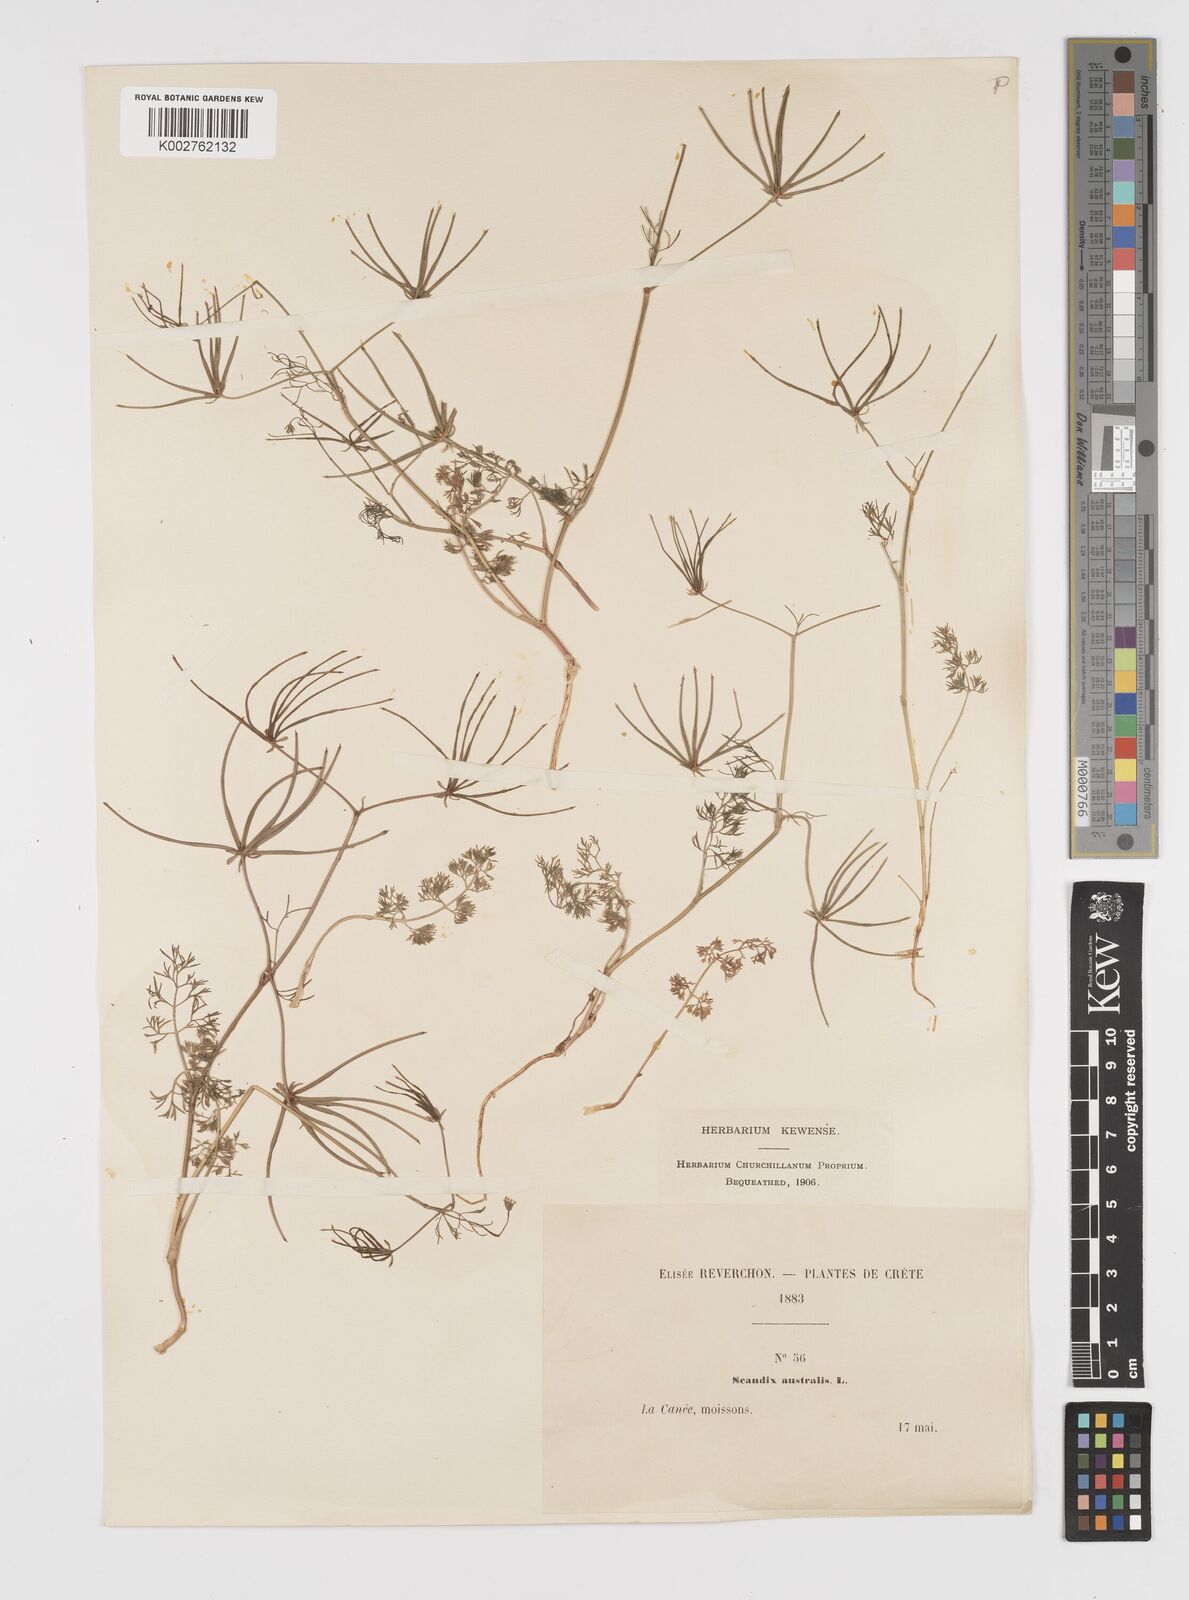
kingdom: Plantae
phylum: Tracheophyta
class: Magnoliopsida
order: Apiales
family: Apiaceae
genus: Scandix
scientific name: Scandix australis
